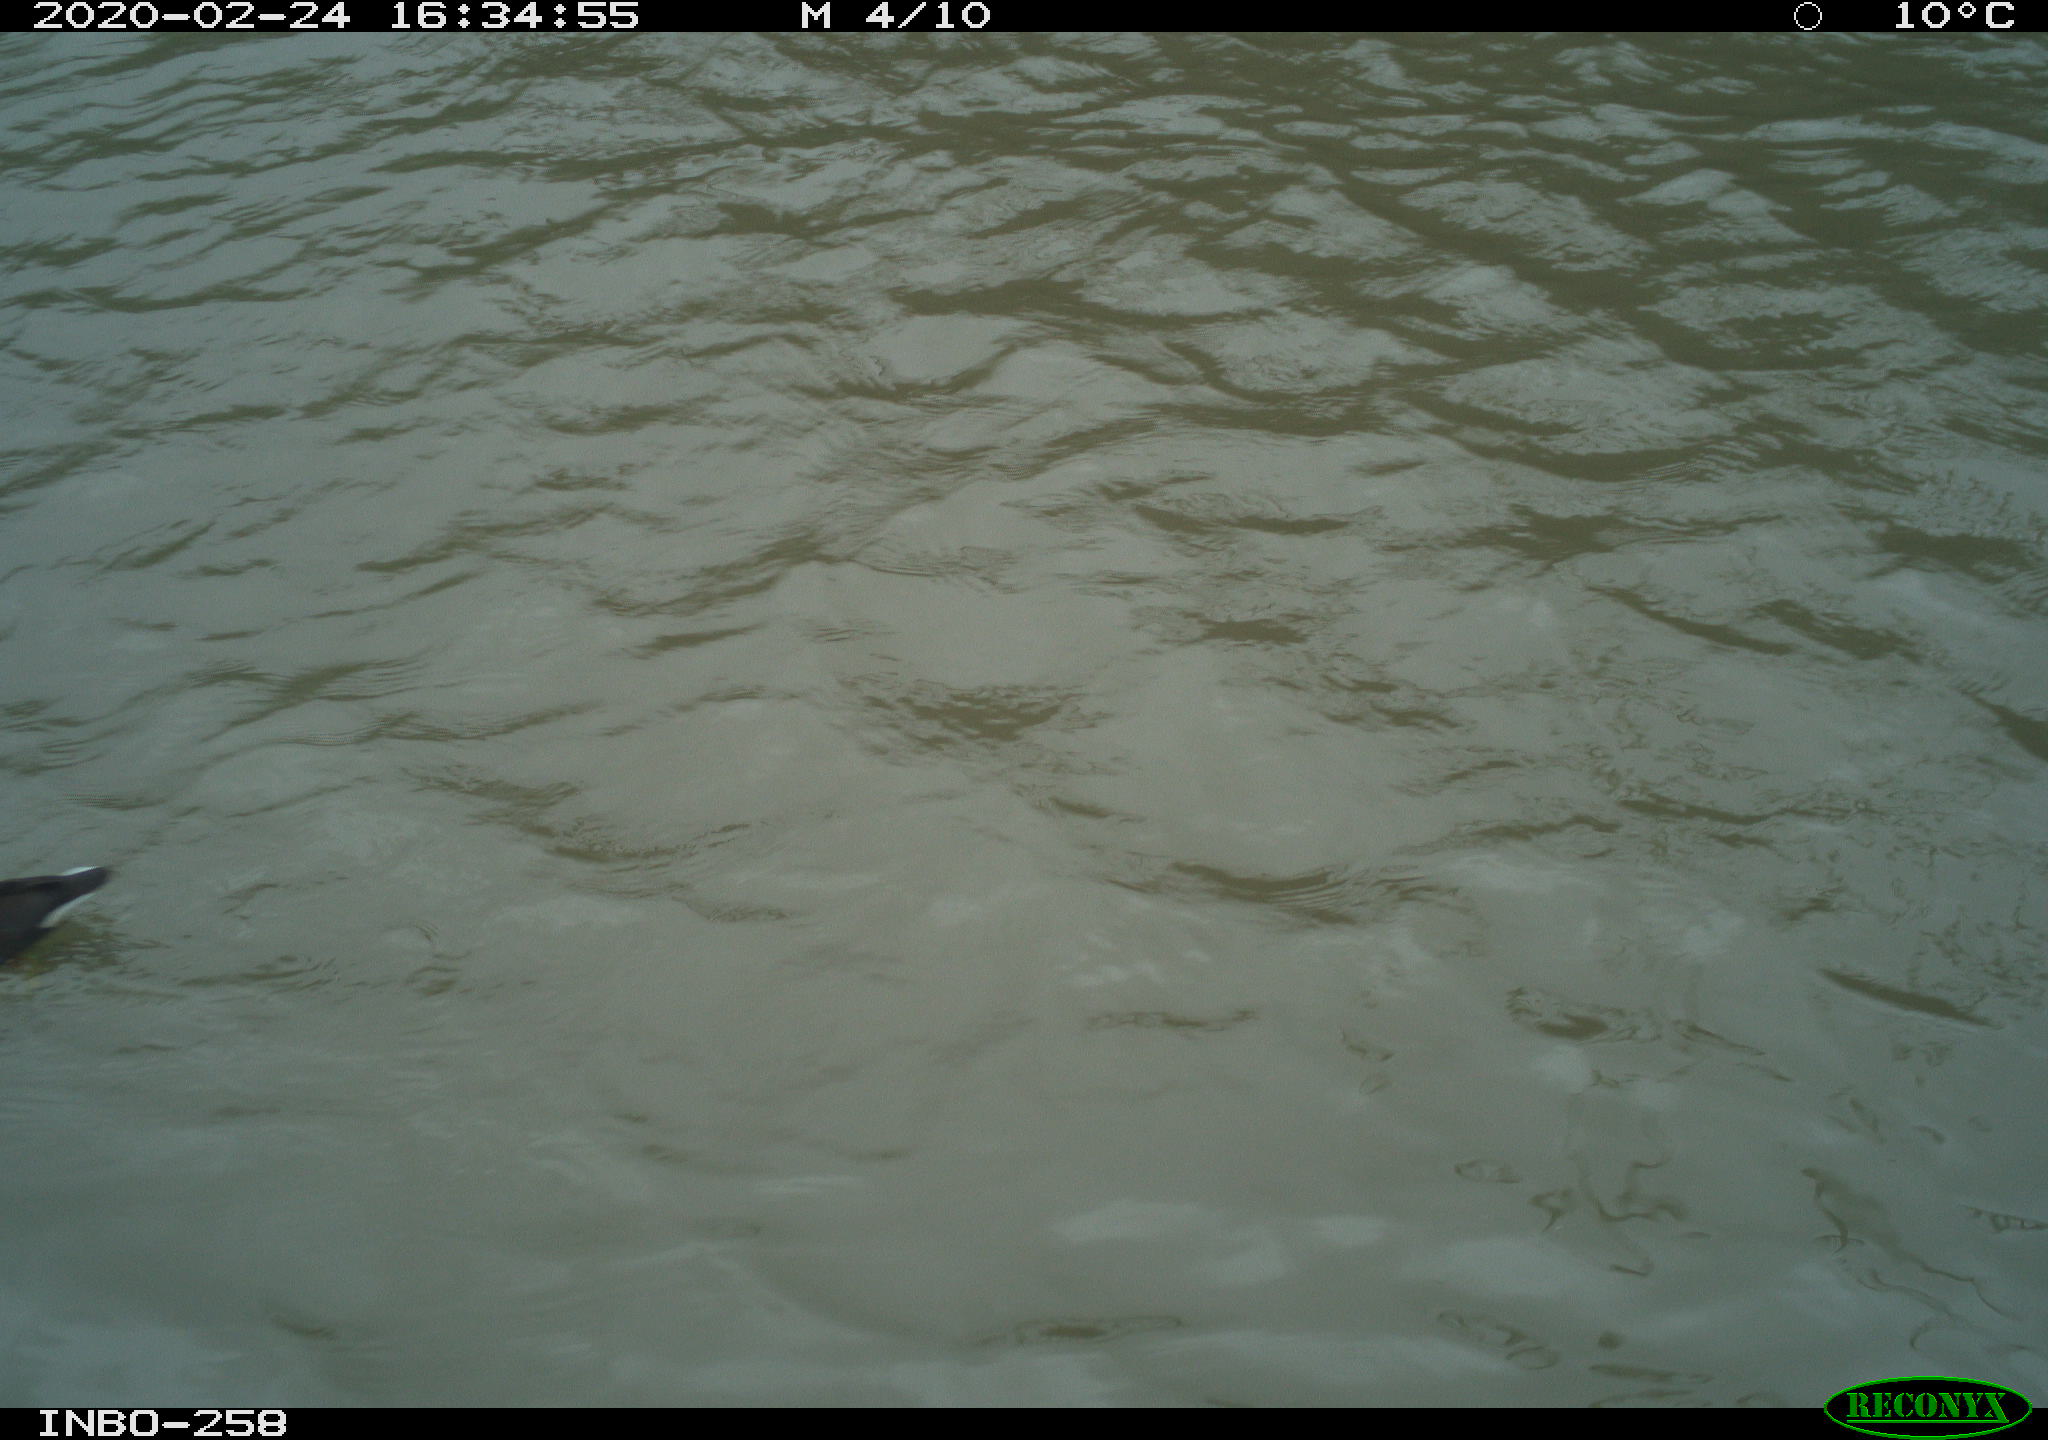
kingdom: Animalia
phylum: Chordata
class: Aves
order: Gruiformes
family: Rallidae
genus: Gallinula
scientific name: Gallinula chloropus
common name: Common moorhen
